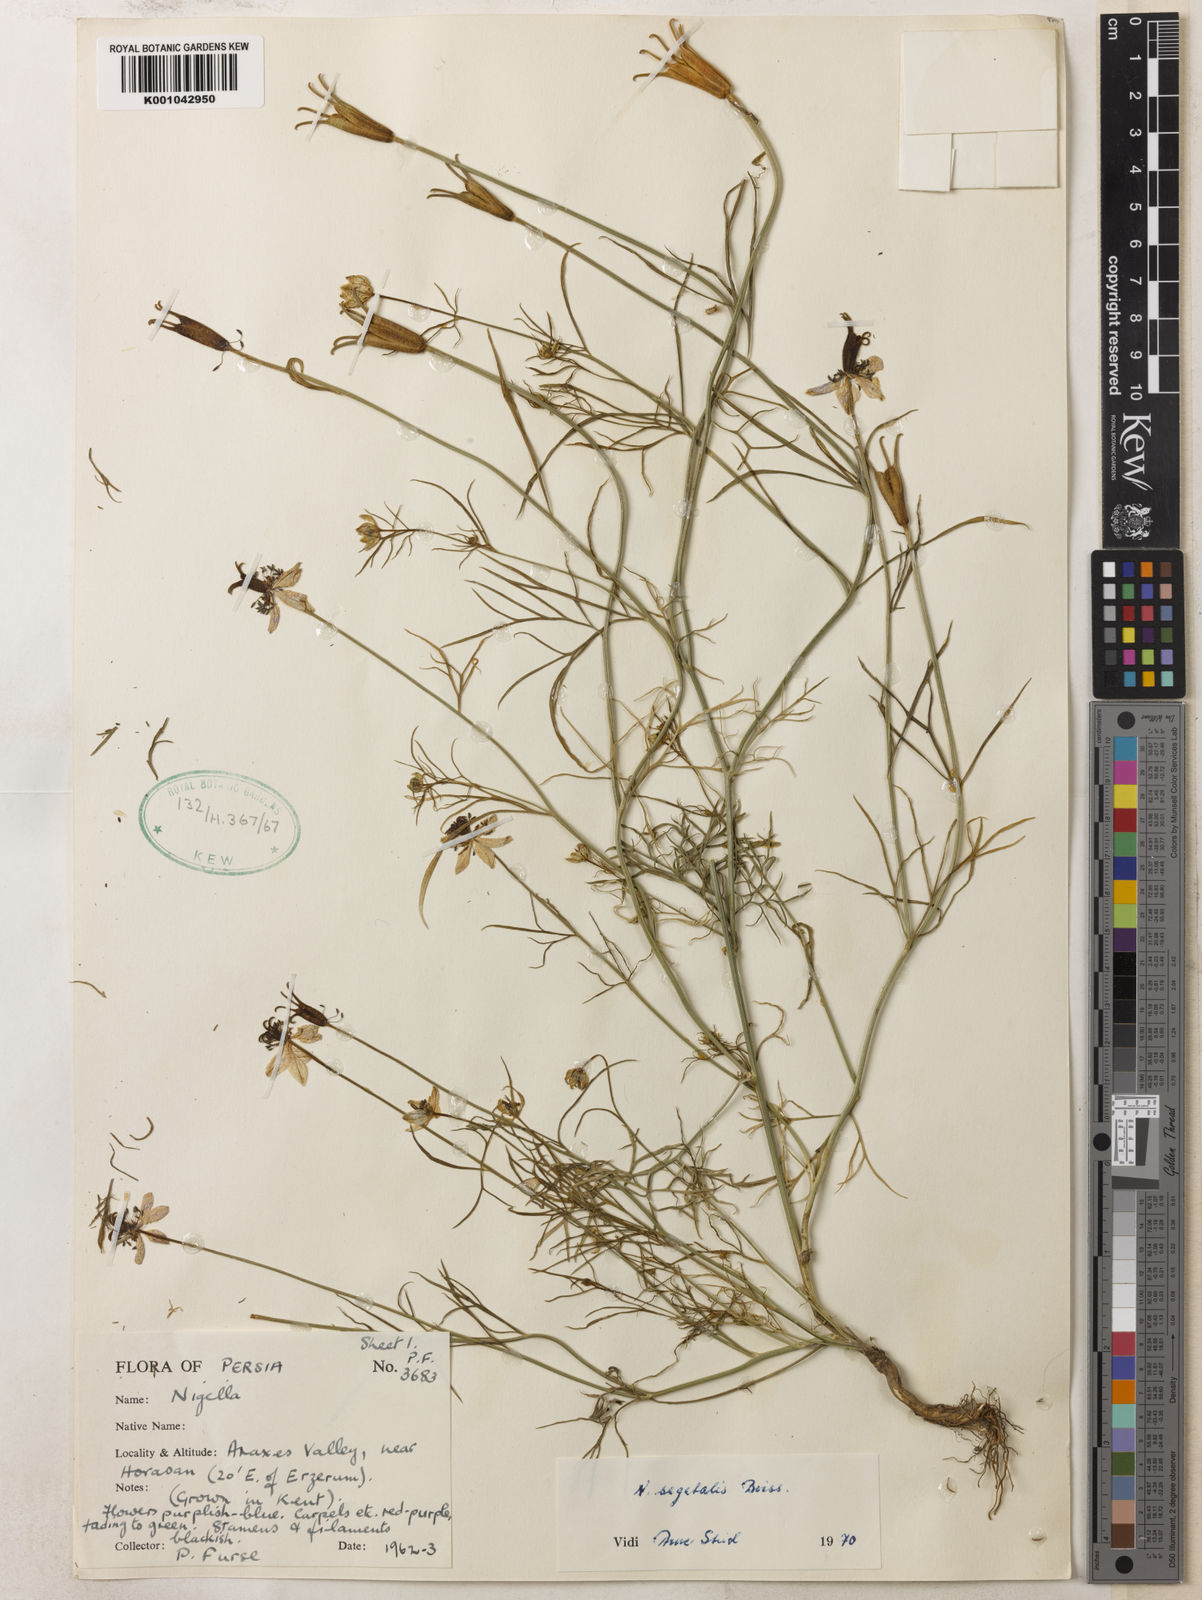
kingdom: Plantae
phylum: Tracheophyta
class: Magnoliopsida
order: Ranunculales
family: Ranunculaceae
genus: Nigella
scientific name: Nigella segetalis
